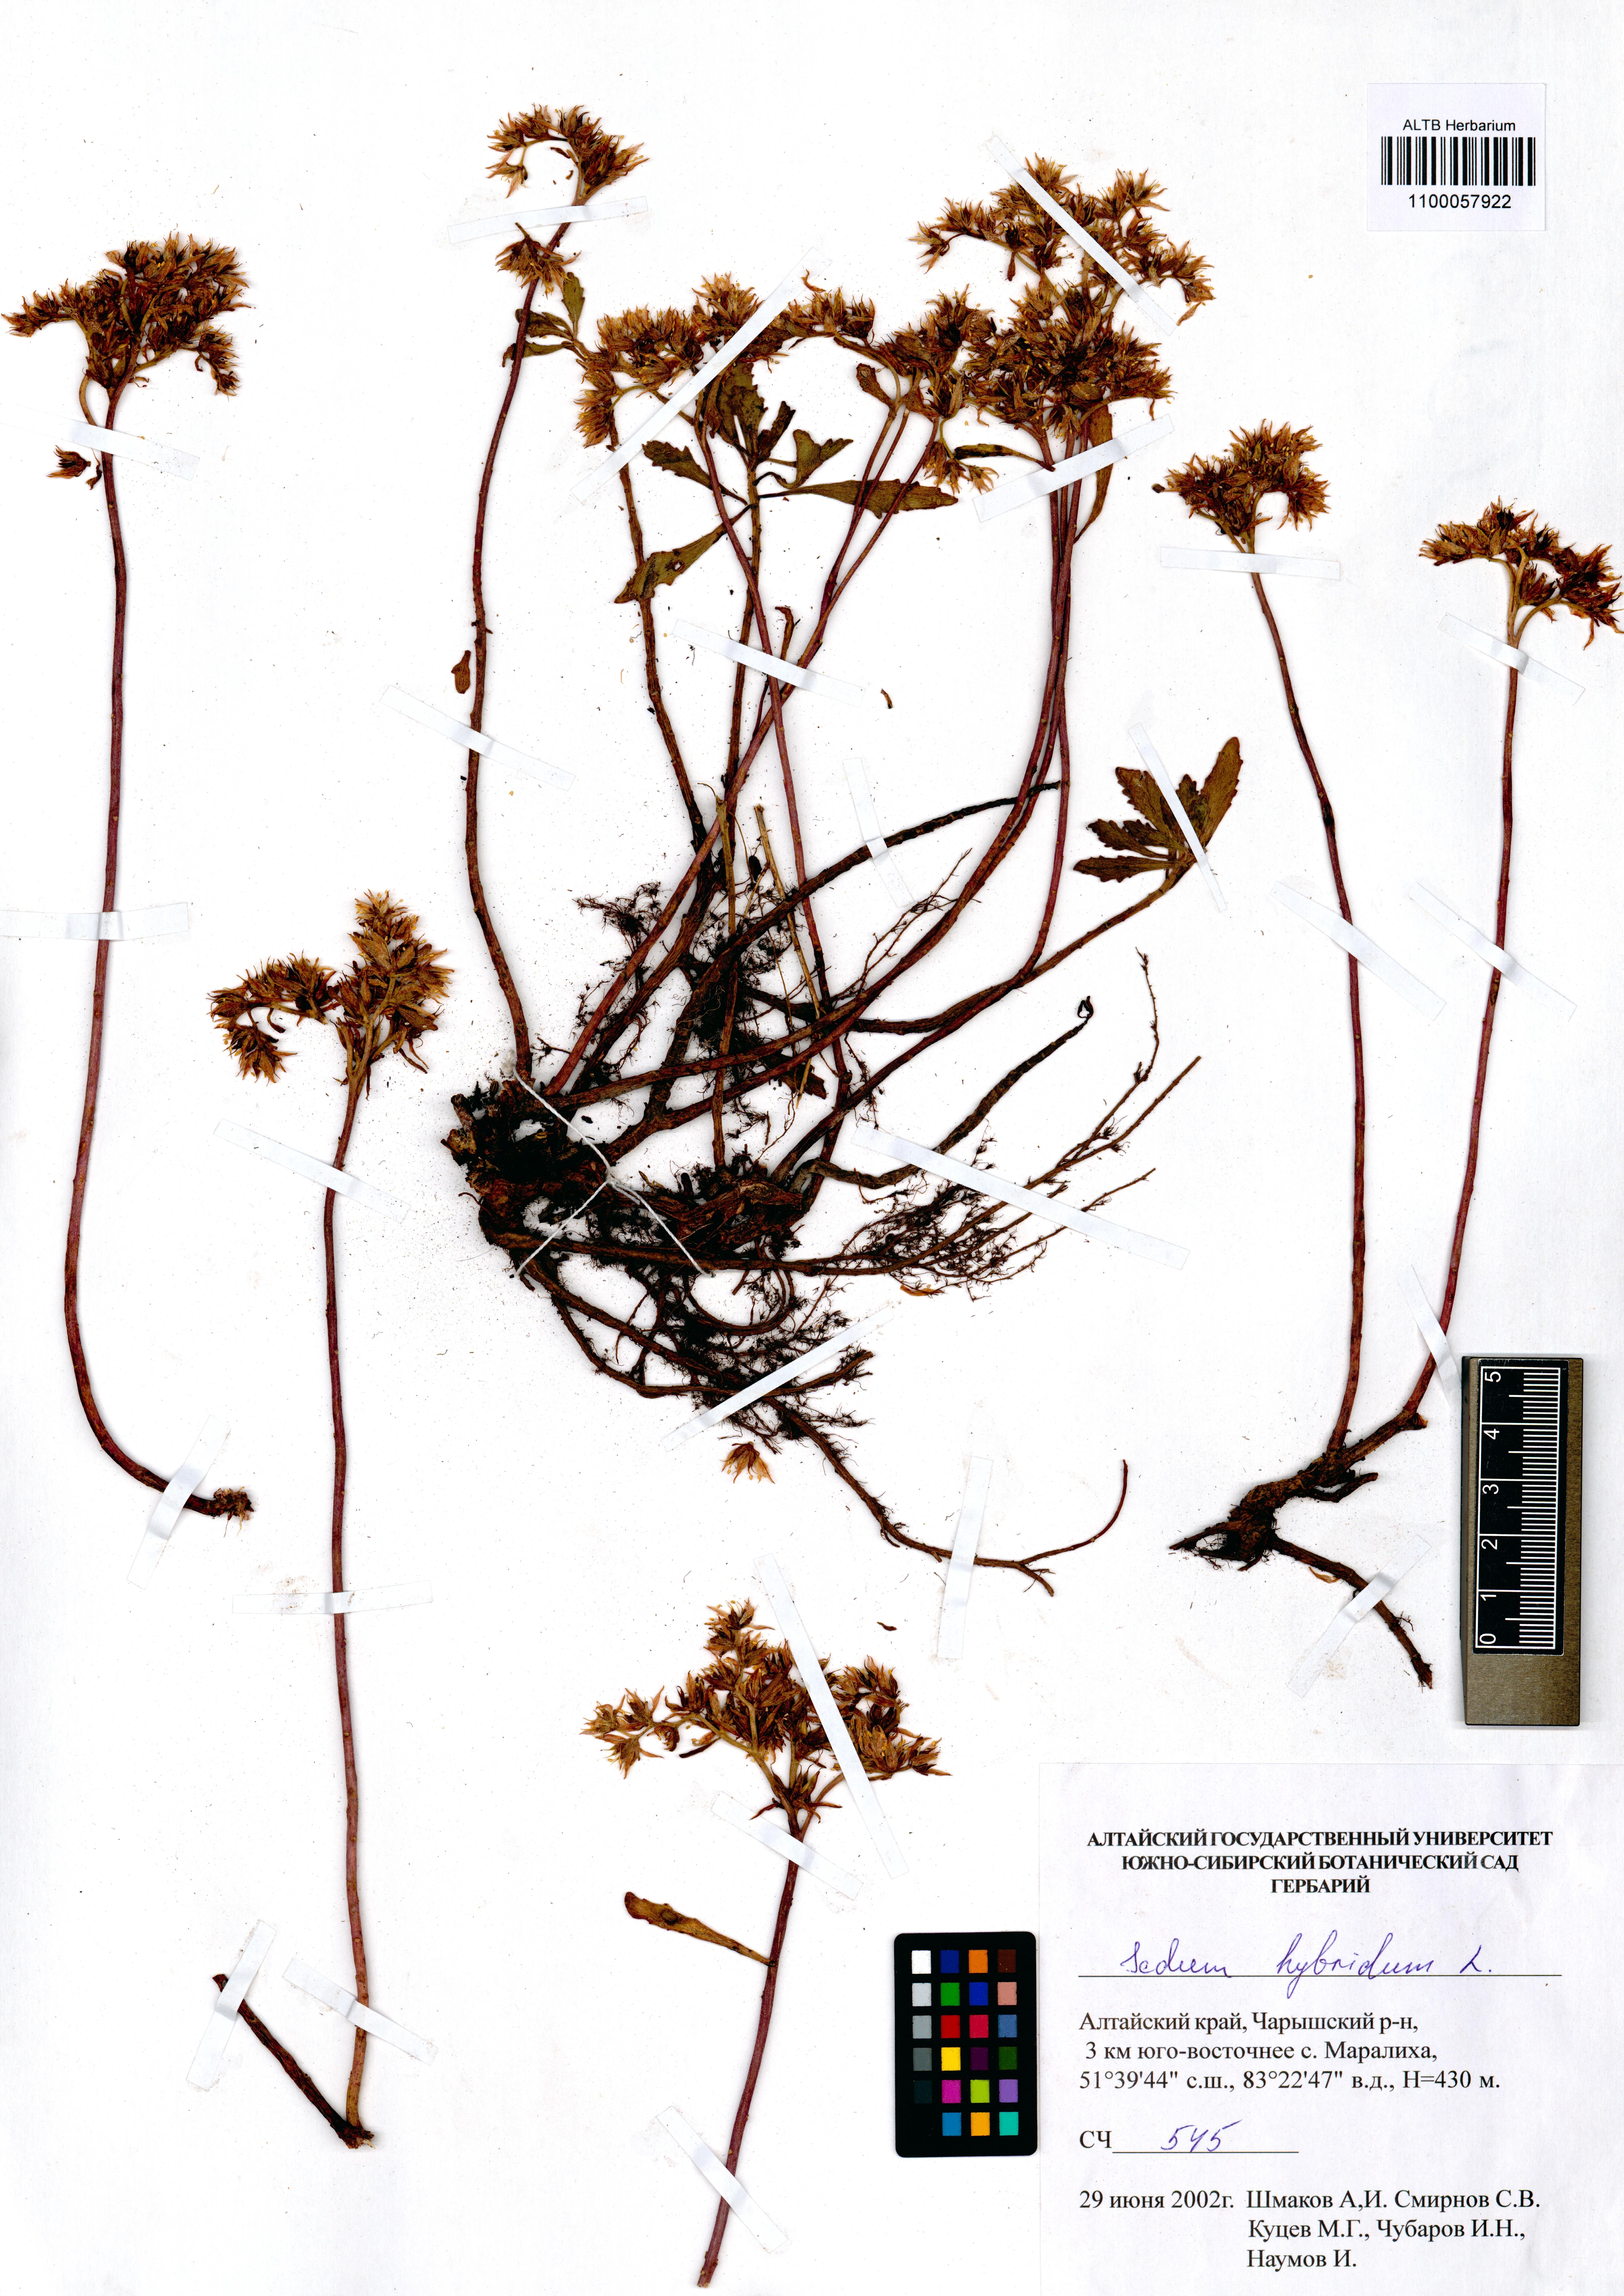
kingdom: Plantae
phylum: Tracheophyta
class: Magnoliopsida
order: Saxifragales
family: Crassulaceae
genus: Phedimus
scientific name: Phedimus hybridus
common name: Hybrid stonecrop
